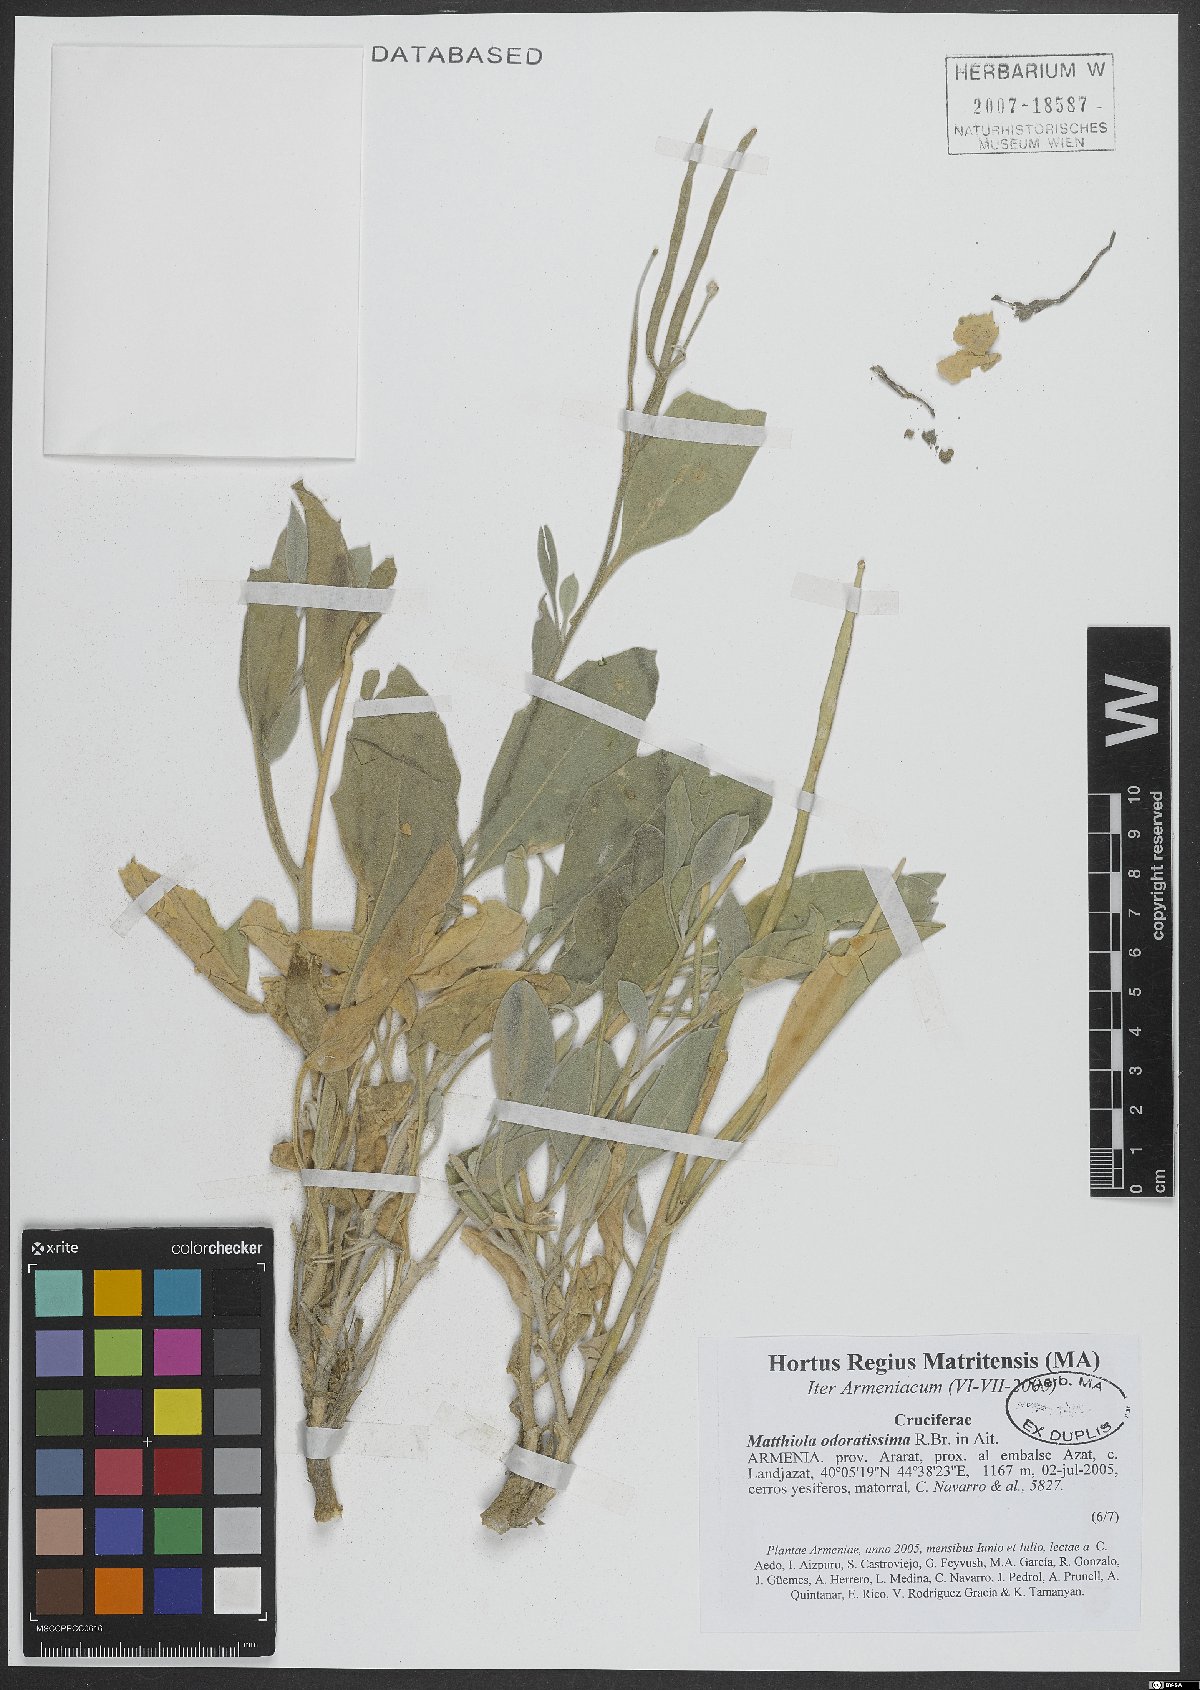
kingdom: Plantae
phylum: Tracheophyta
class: Magnoliopsida
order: Brassicales
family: Brassicaceae
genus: Matthiola
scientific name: Matthiola spathulata
